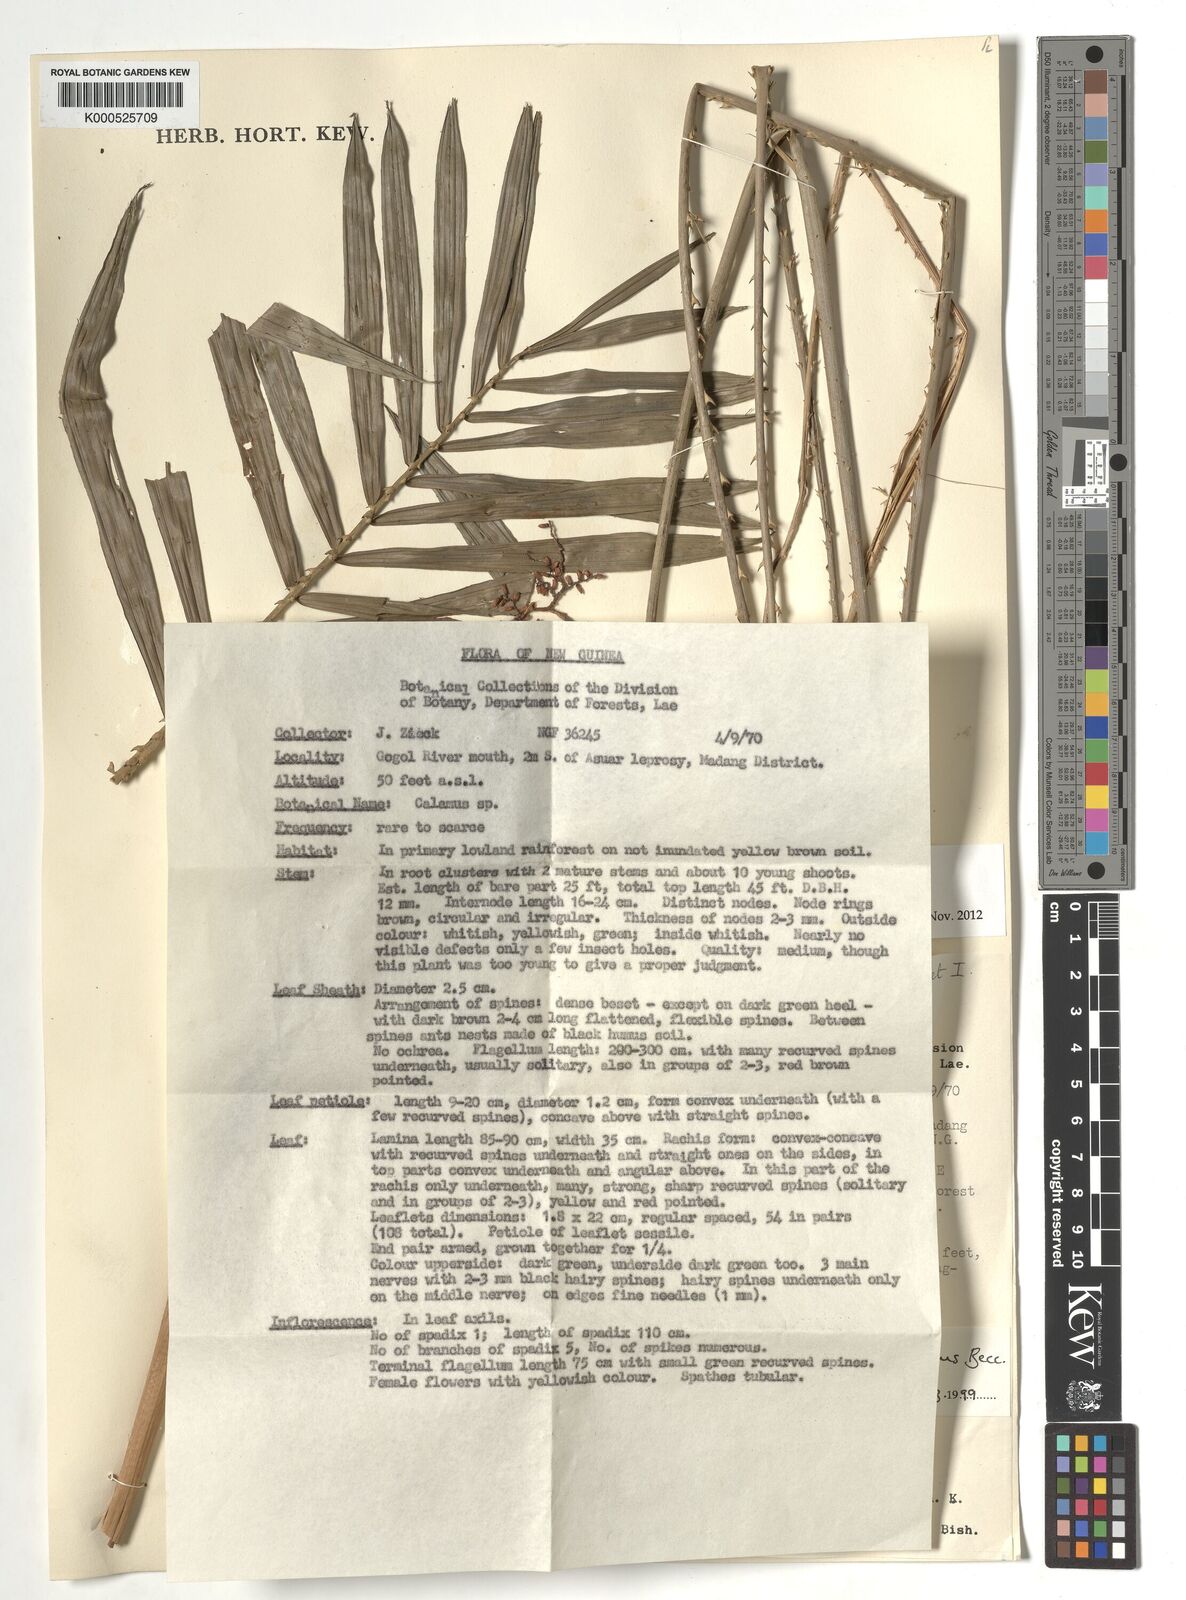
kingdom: Plantae
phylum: Tracheophyta
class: Liliopsida
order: Arecales
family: Arecaceae
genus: Calamus
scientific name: Calamus schlechterianus
